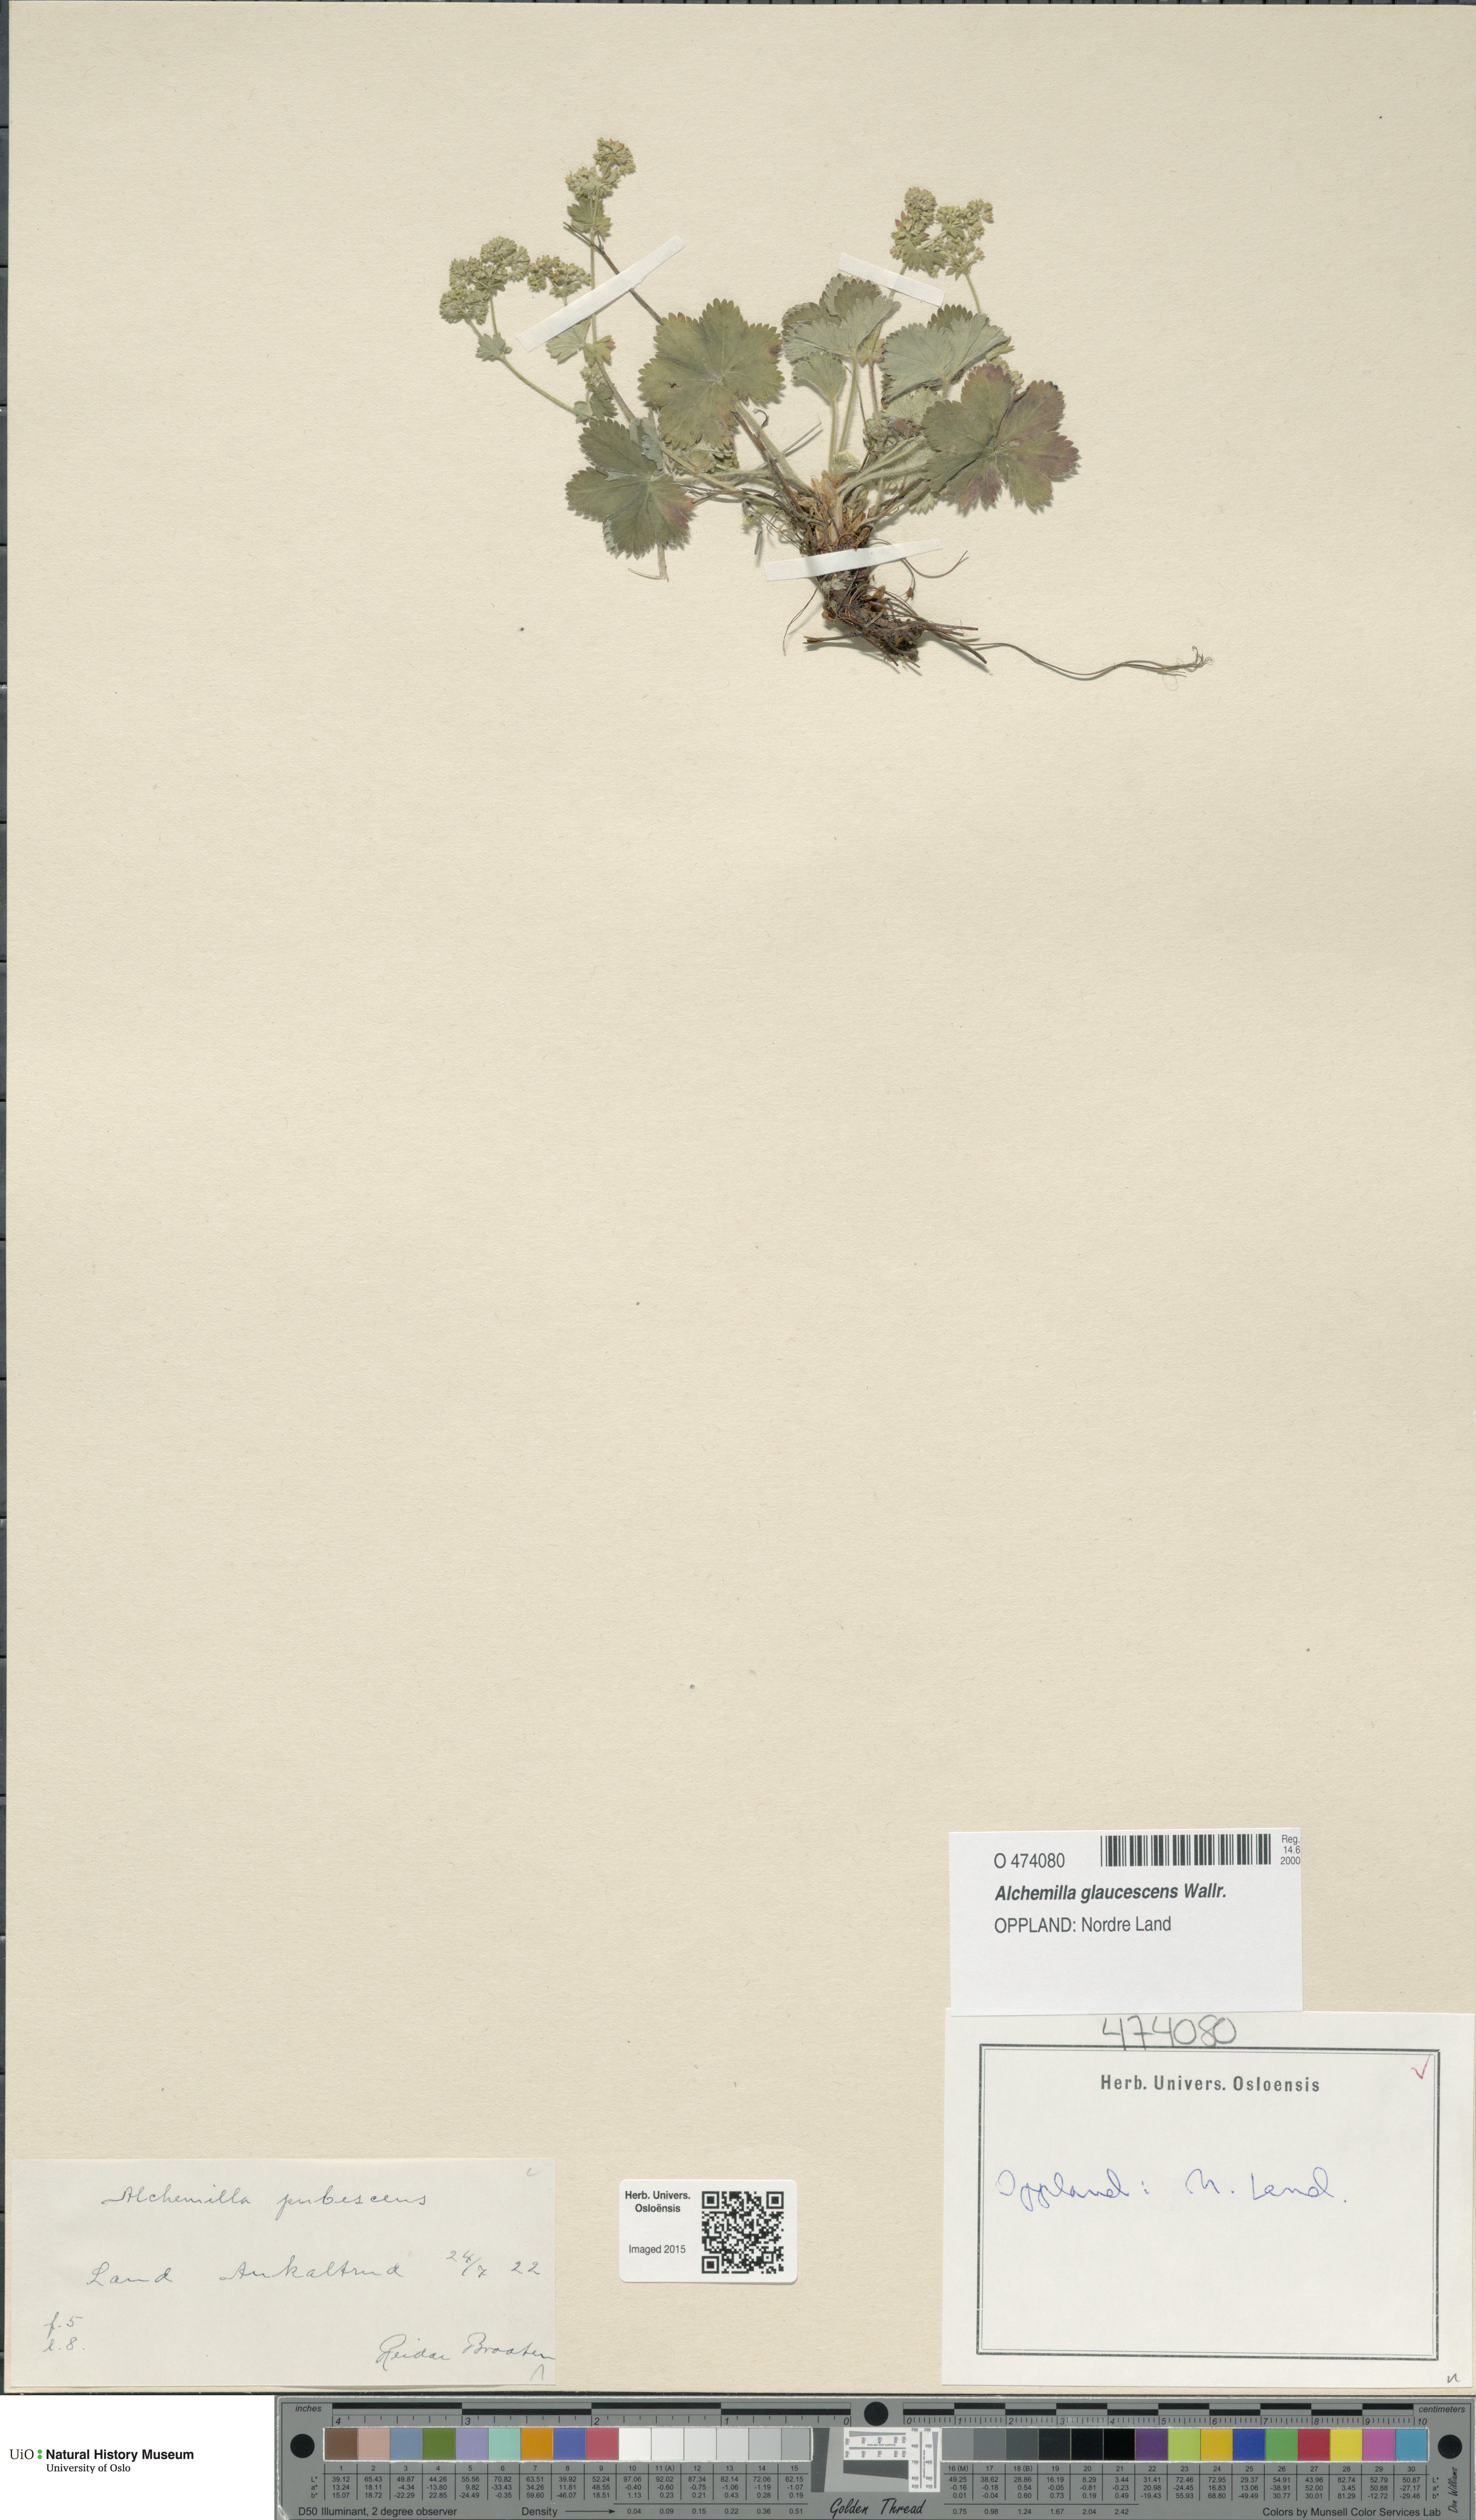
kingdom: Plantae
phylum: Tracheophyta
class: Magnoliopsida
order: Rosales
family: Rosaceae
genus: Alchemilla
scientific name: Alchemilla glaucescens
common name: Silky lady's mantle
